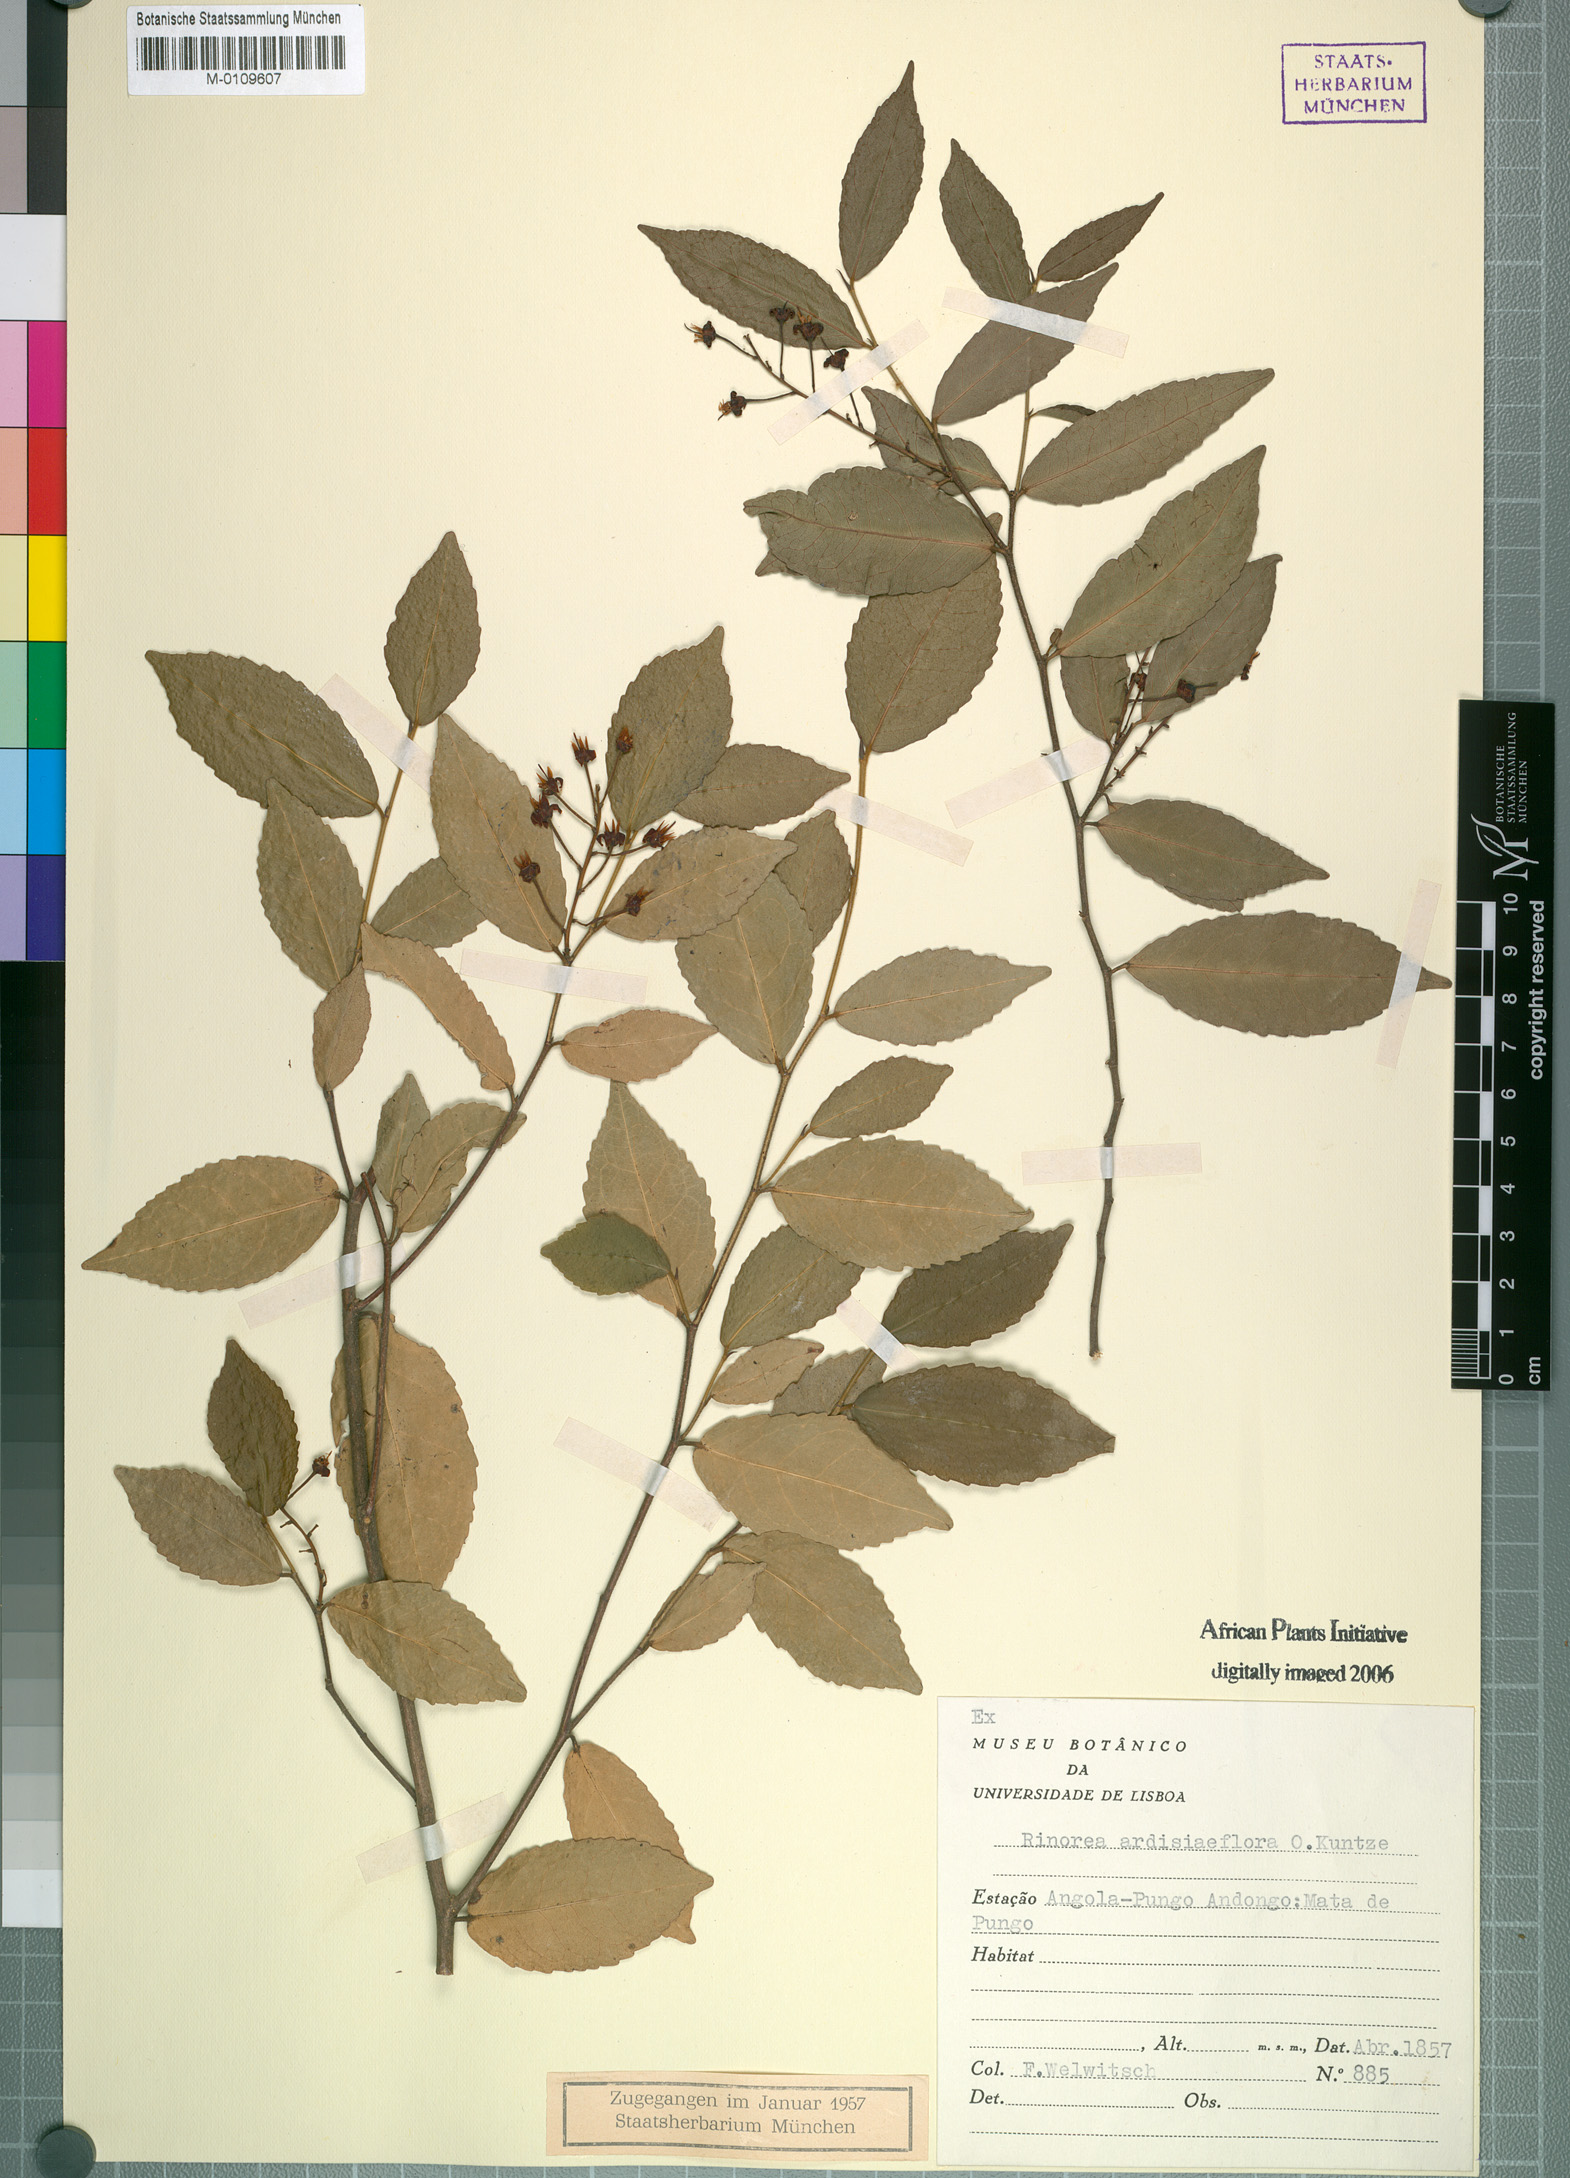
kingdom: Plantae
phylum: Tracheophyta
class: Magnoliopsida
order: Malpighiales
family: Violaceae
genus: Rinorea
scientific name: Rinorea angustifolia
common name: White violet-bush
